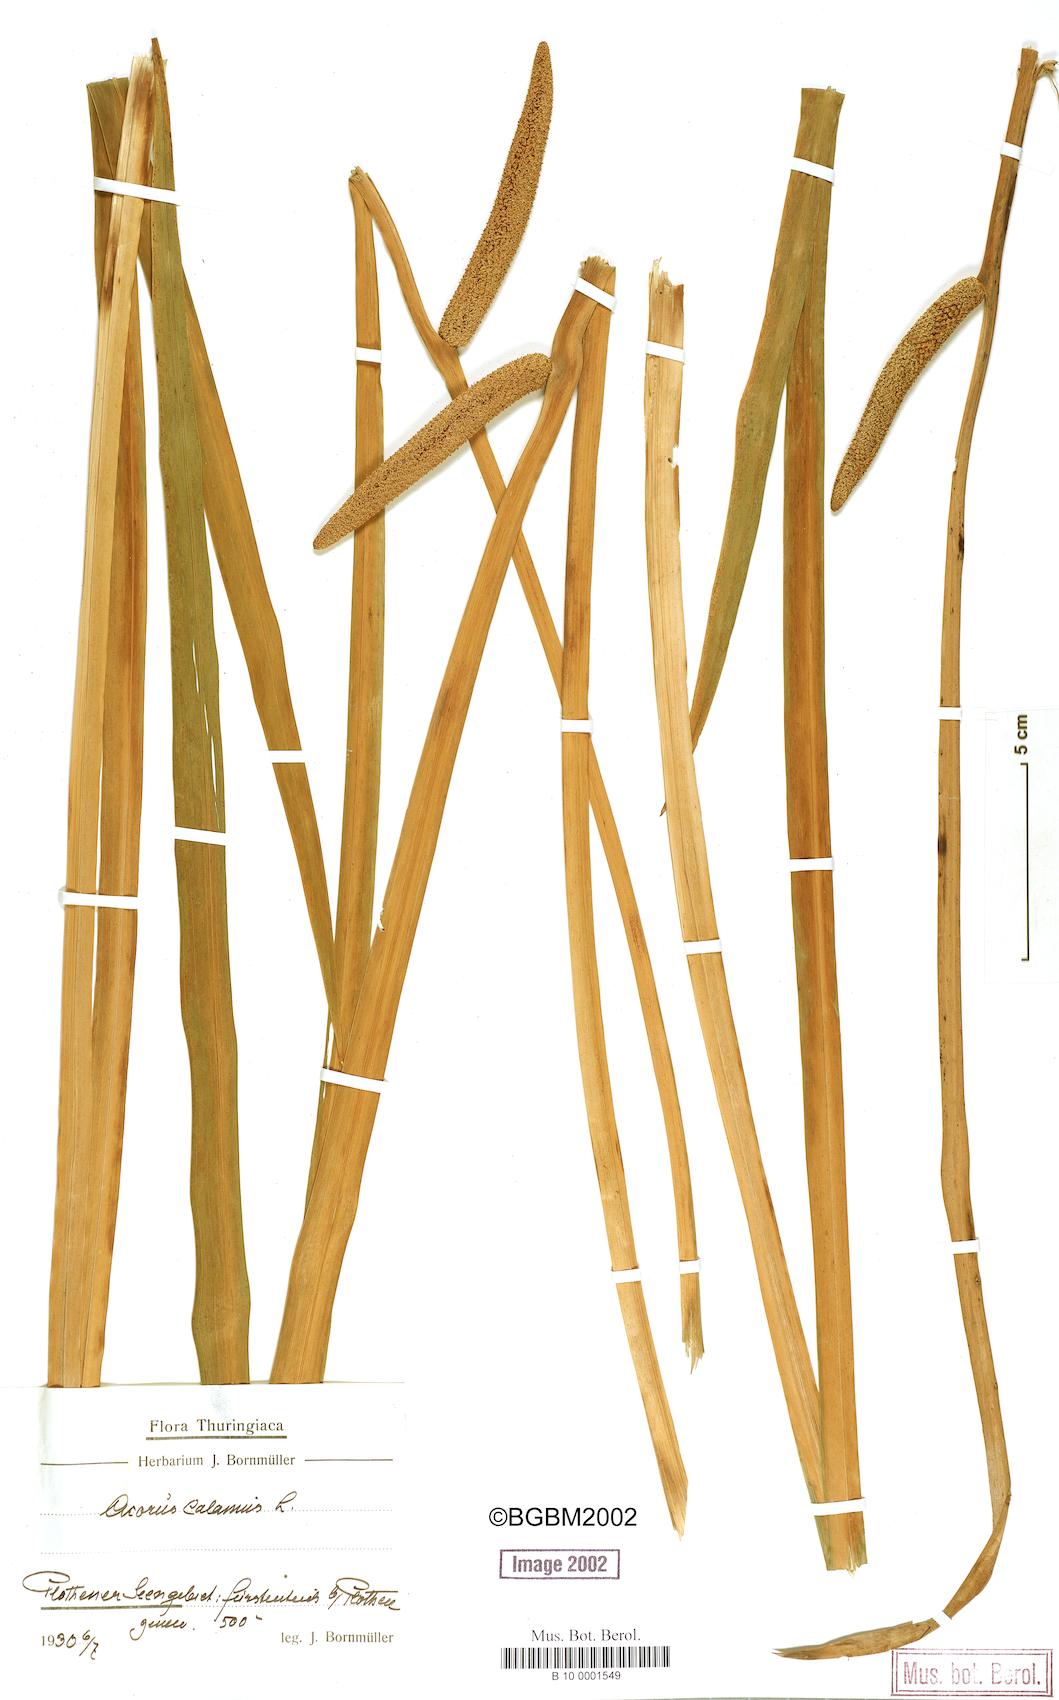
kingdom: Plantae
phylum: Tracheophyta
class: Liliopsida
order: Acorales
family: Acoraceae
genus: Acorus
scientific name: Acorus calamus
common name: Sweet-flag
